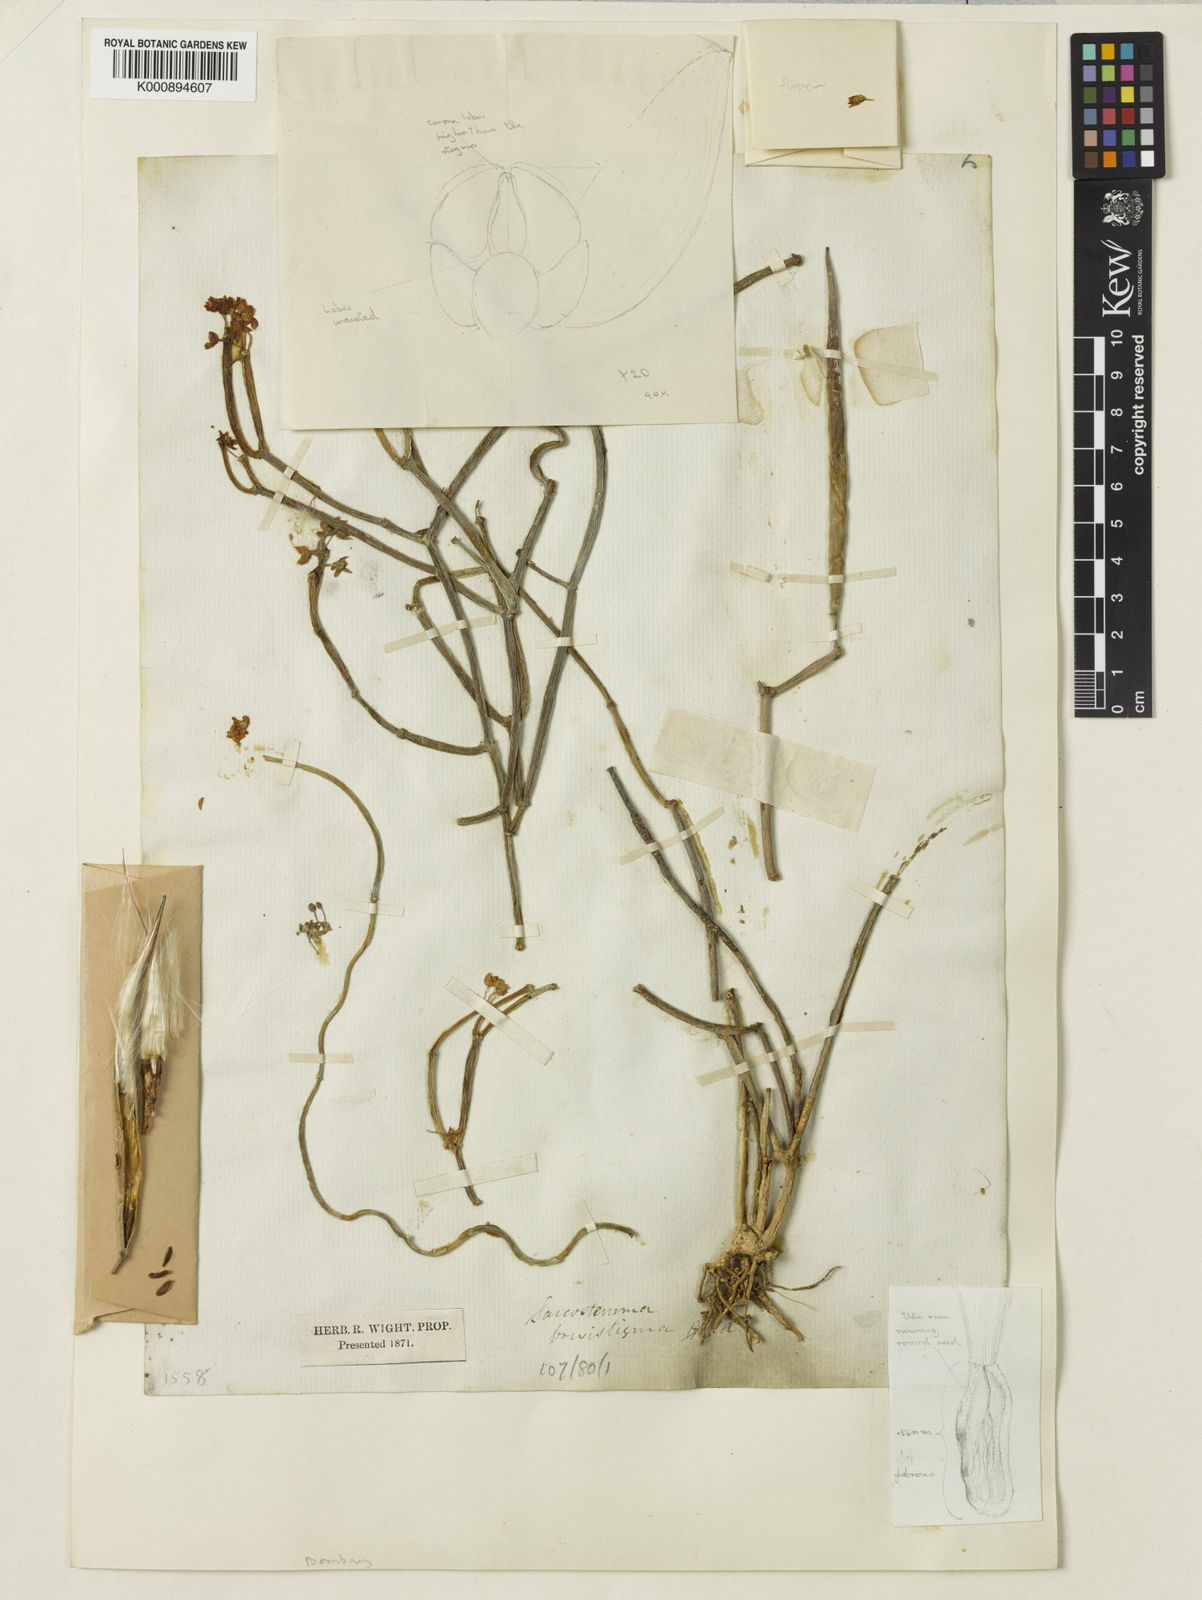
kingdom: Plantae
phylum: Tracheophyta
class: Magnoliopsida
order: Gentianales
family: Apocynaceae
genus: Cynanchum
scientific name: Cynanchum viminale
